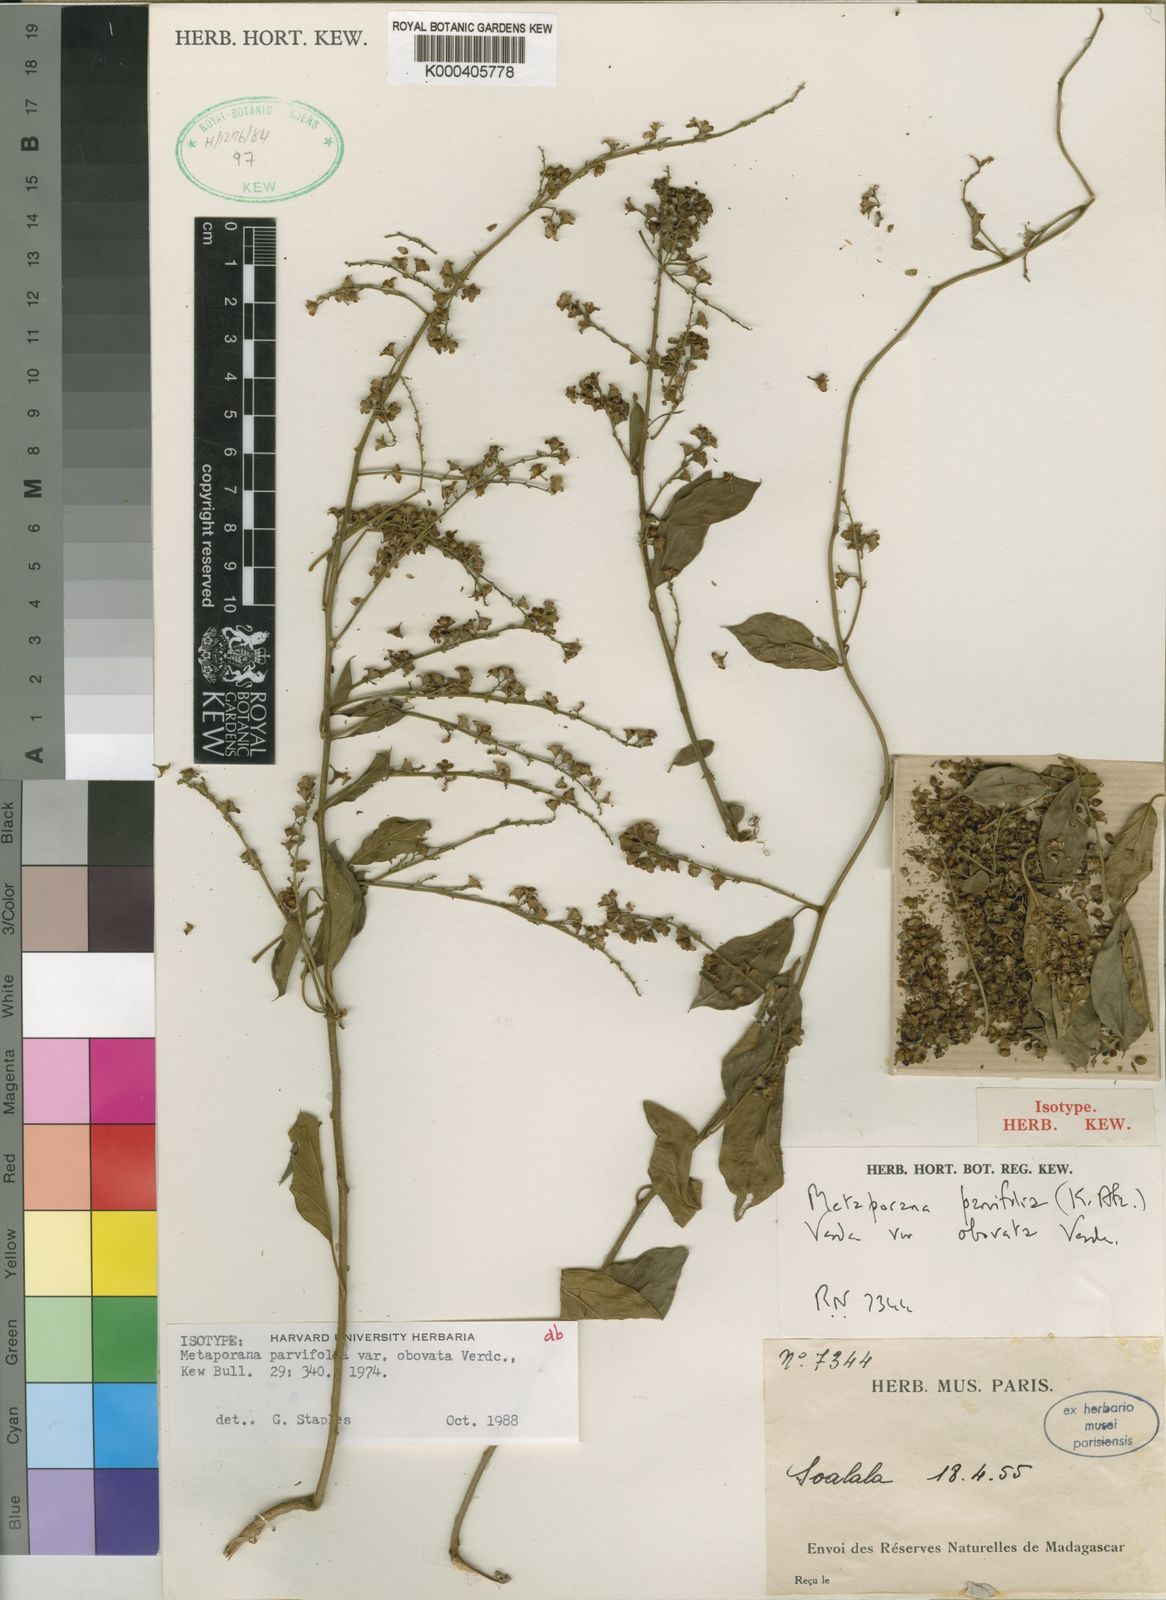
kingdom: Plantae
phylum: Tracheophyta
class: Magnoliopsida
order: Solanales
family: Convolvulaceae
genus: Metaporana
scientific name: Metaporana parvifolia
